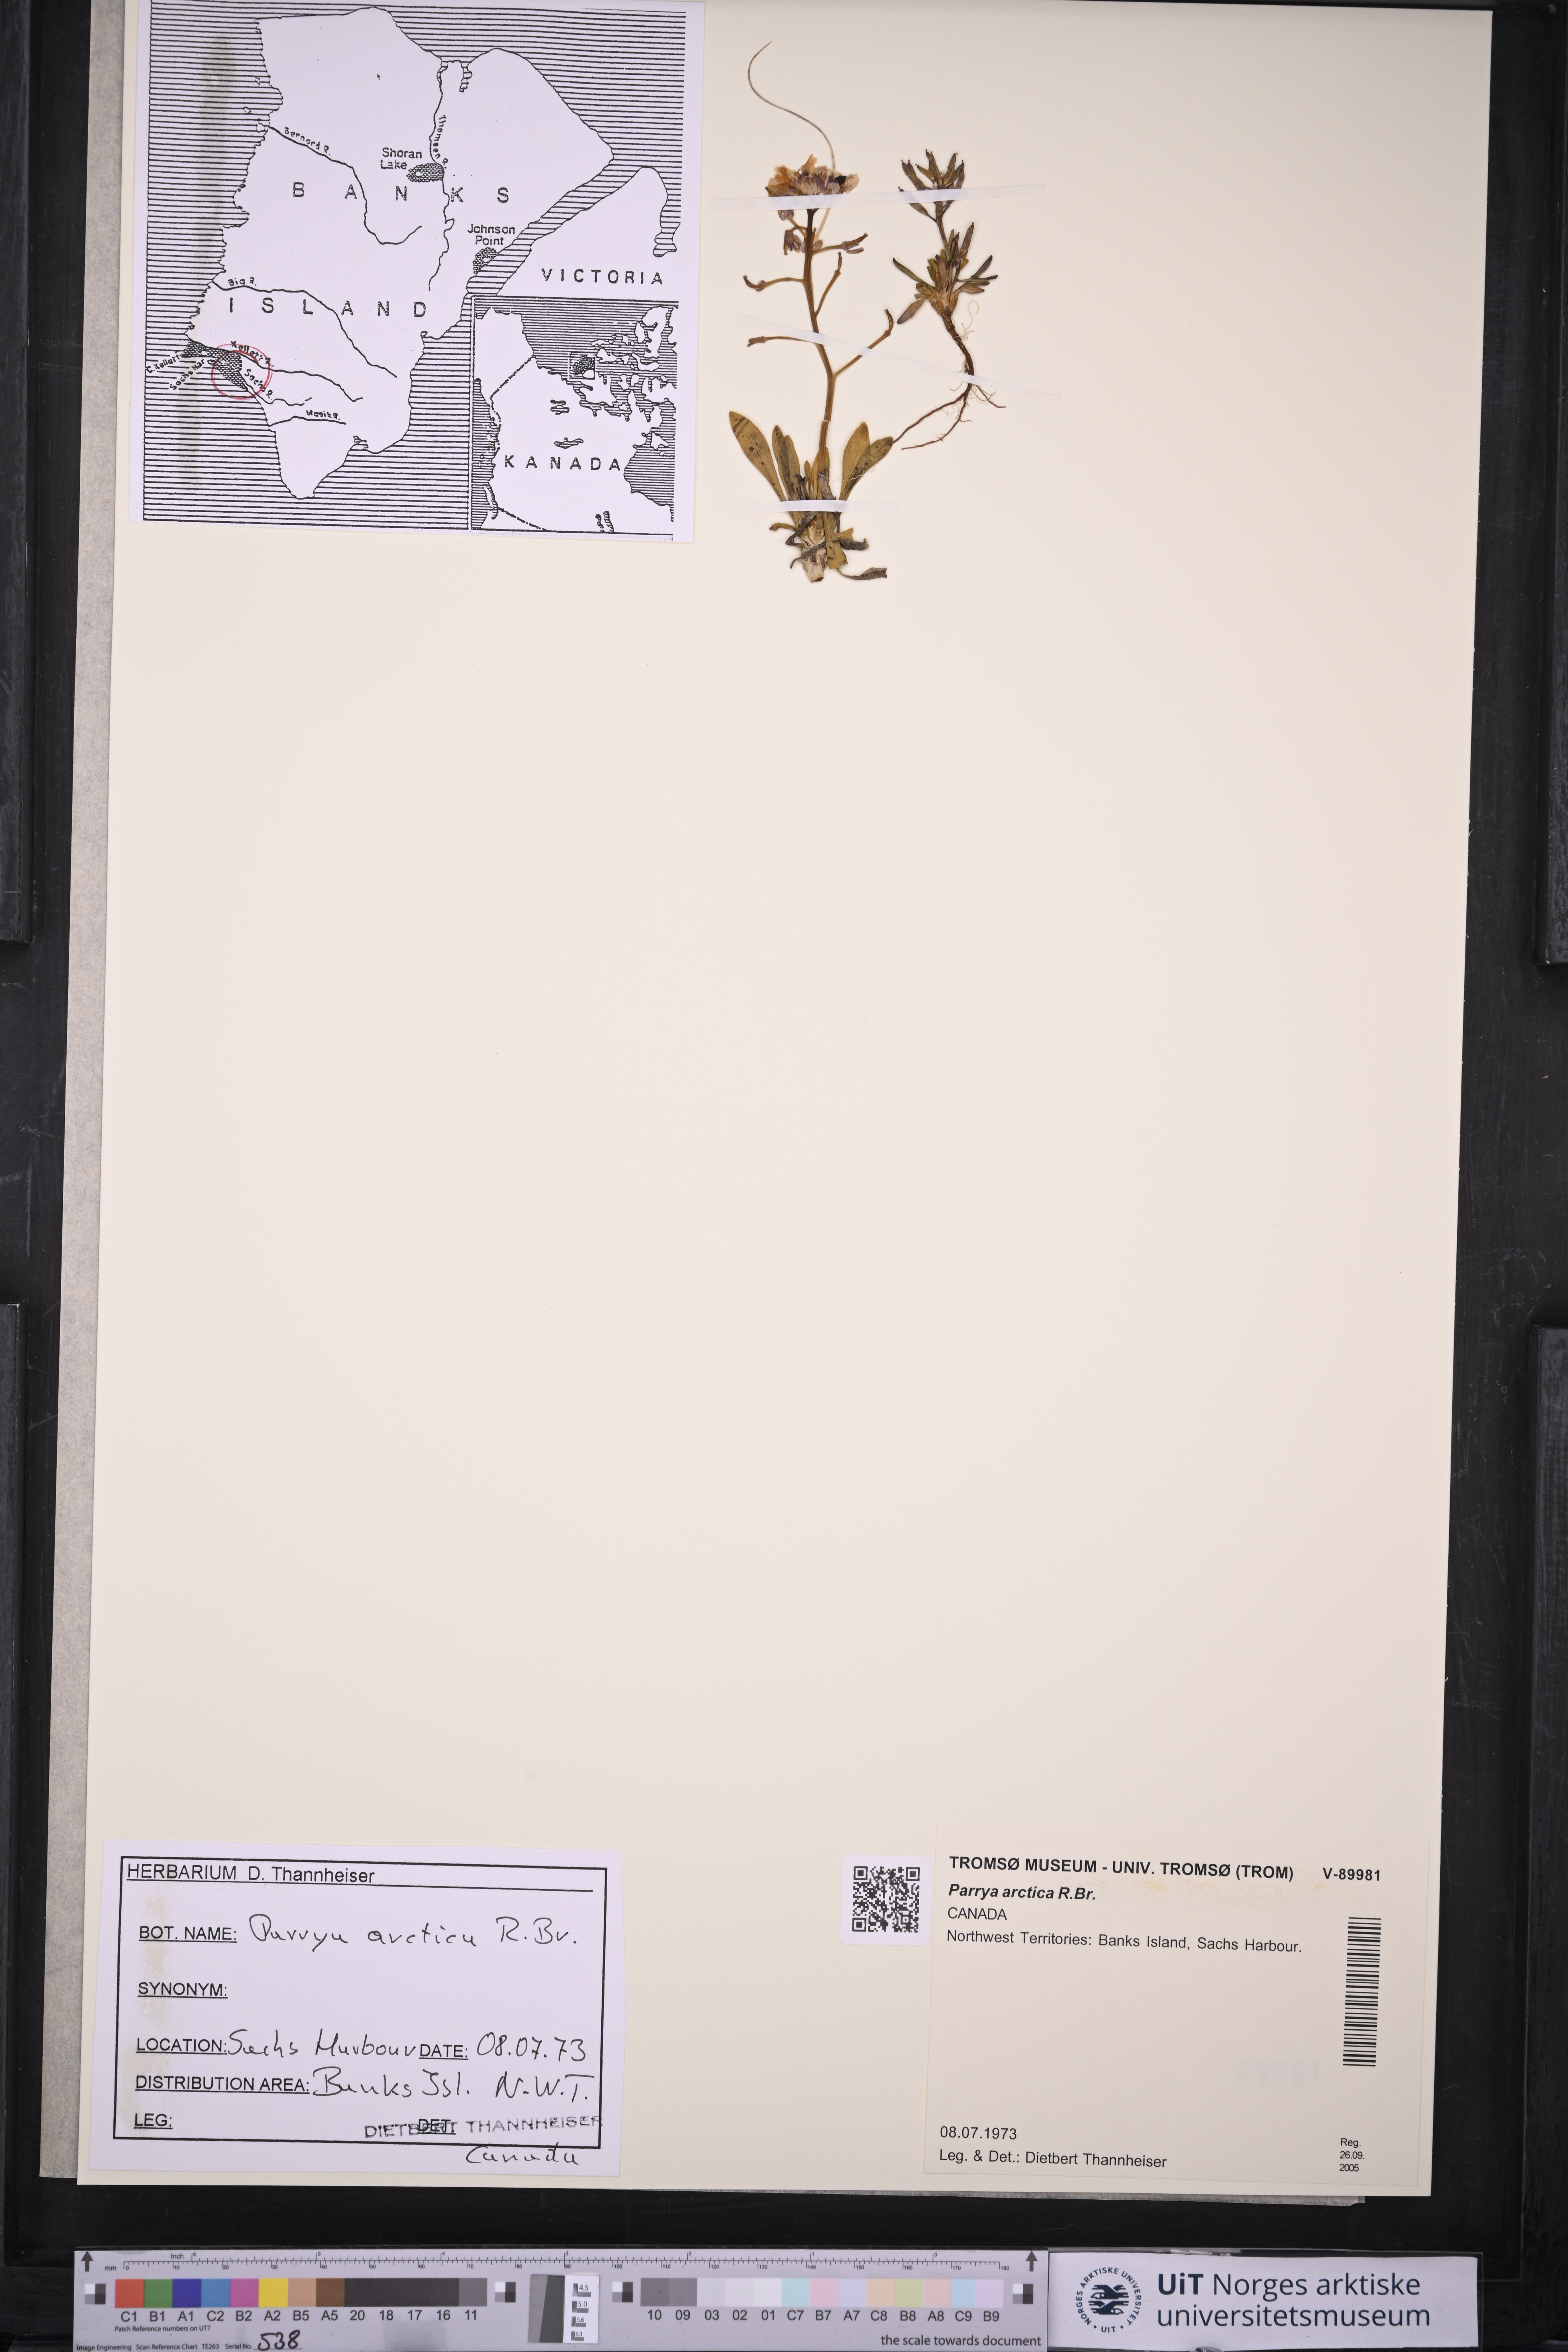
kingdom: Plantae
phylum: Tracheophyta
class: Magnoliopsida
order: Brassicales
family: Brassicaceae
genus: Parrya
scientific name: Parrya arctica
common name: Arctic false wallflower
